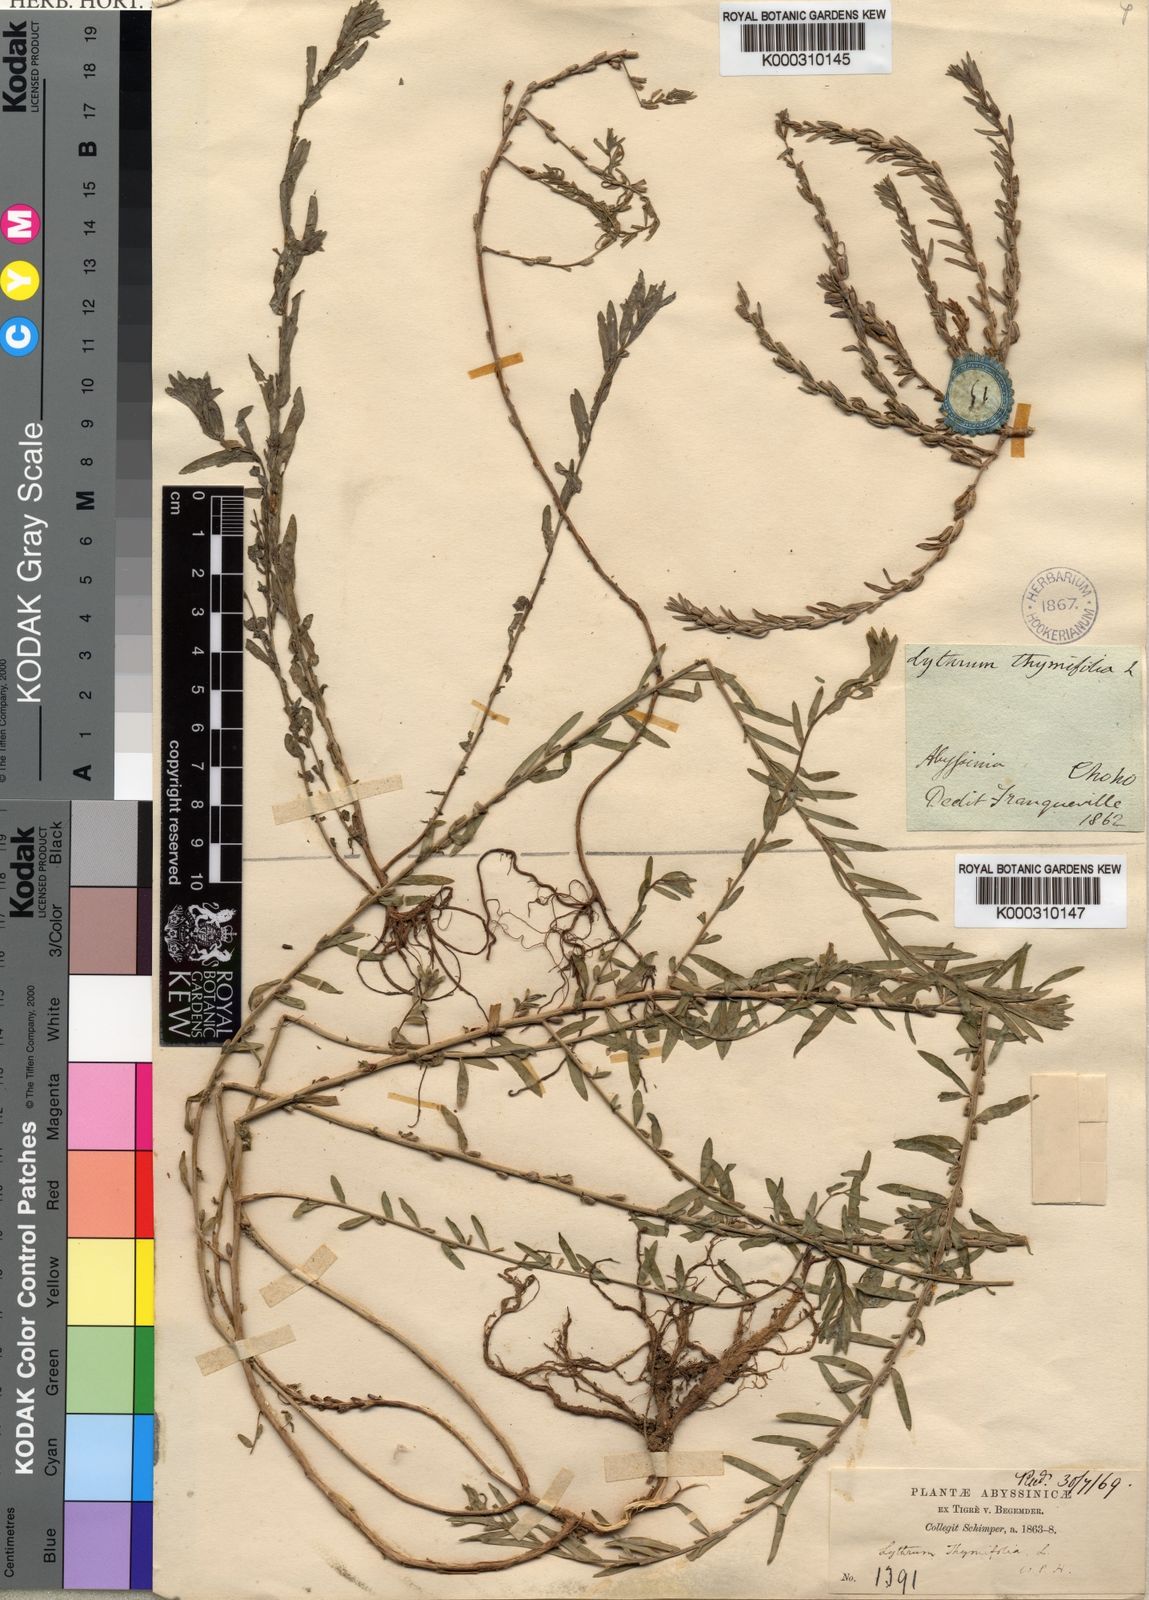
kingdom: Plantae
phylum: Tracheophyta
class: Magnoliopsida
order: Myrtales
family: Lythraceae
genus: Lythrum
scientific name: Lythrum hyssopifolia
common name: Grass-poly
